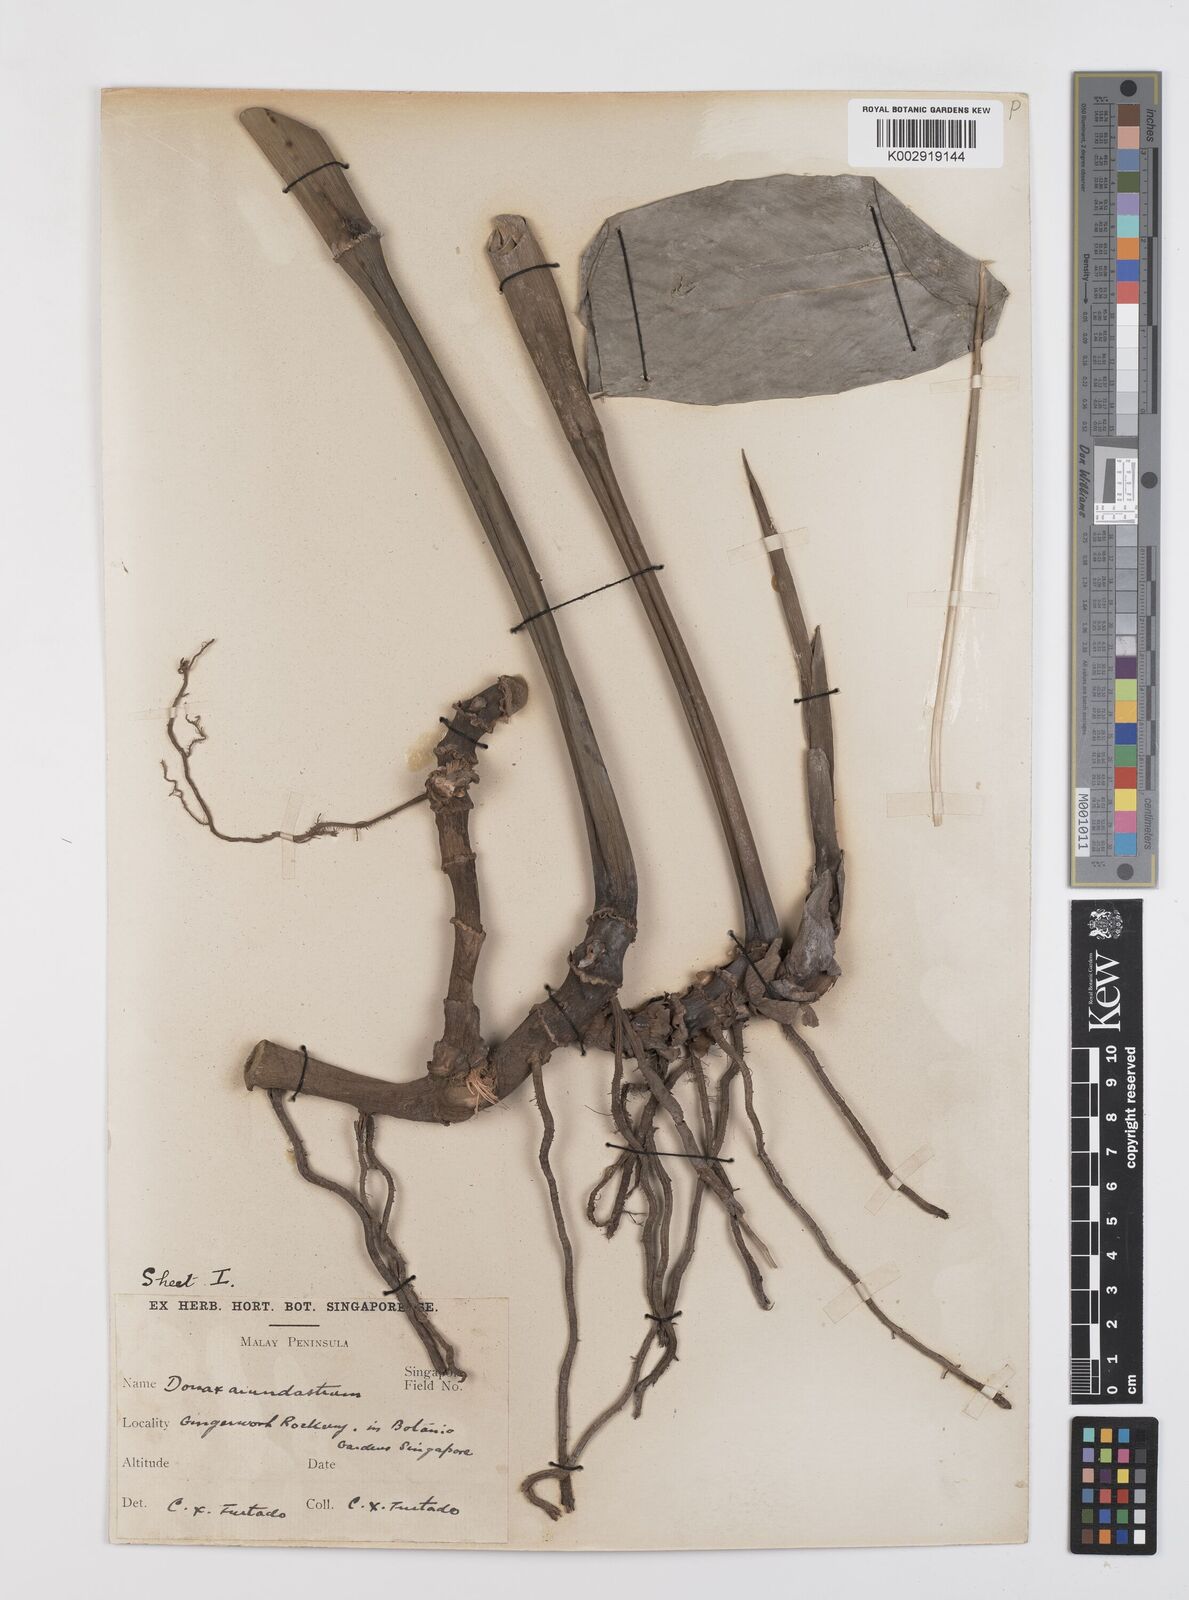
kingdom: Plantae
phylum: Tracheophyta
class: Liliopsida
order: Zingiberales
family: Marantaceae
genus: Trachyphrynium
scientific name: Trachyphrynium braunianum
